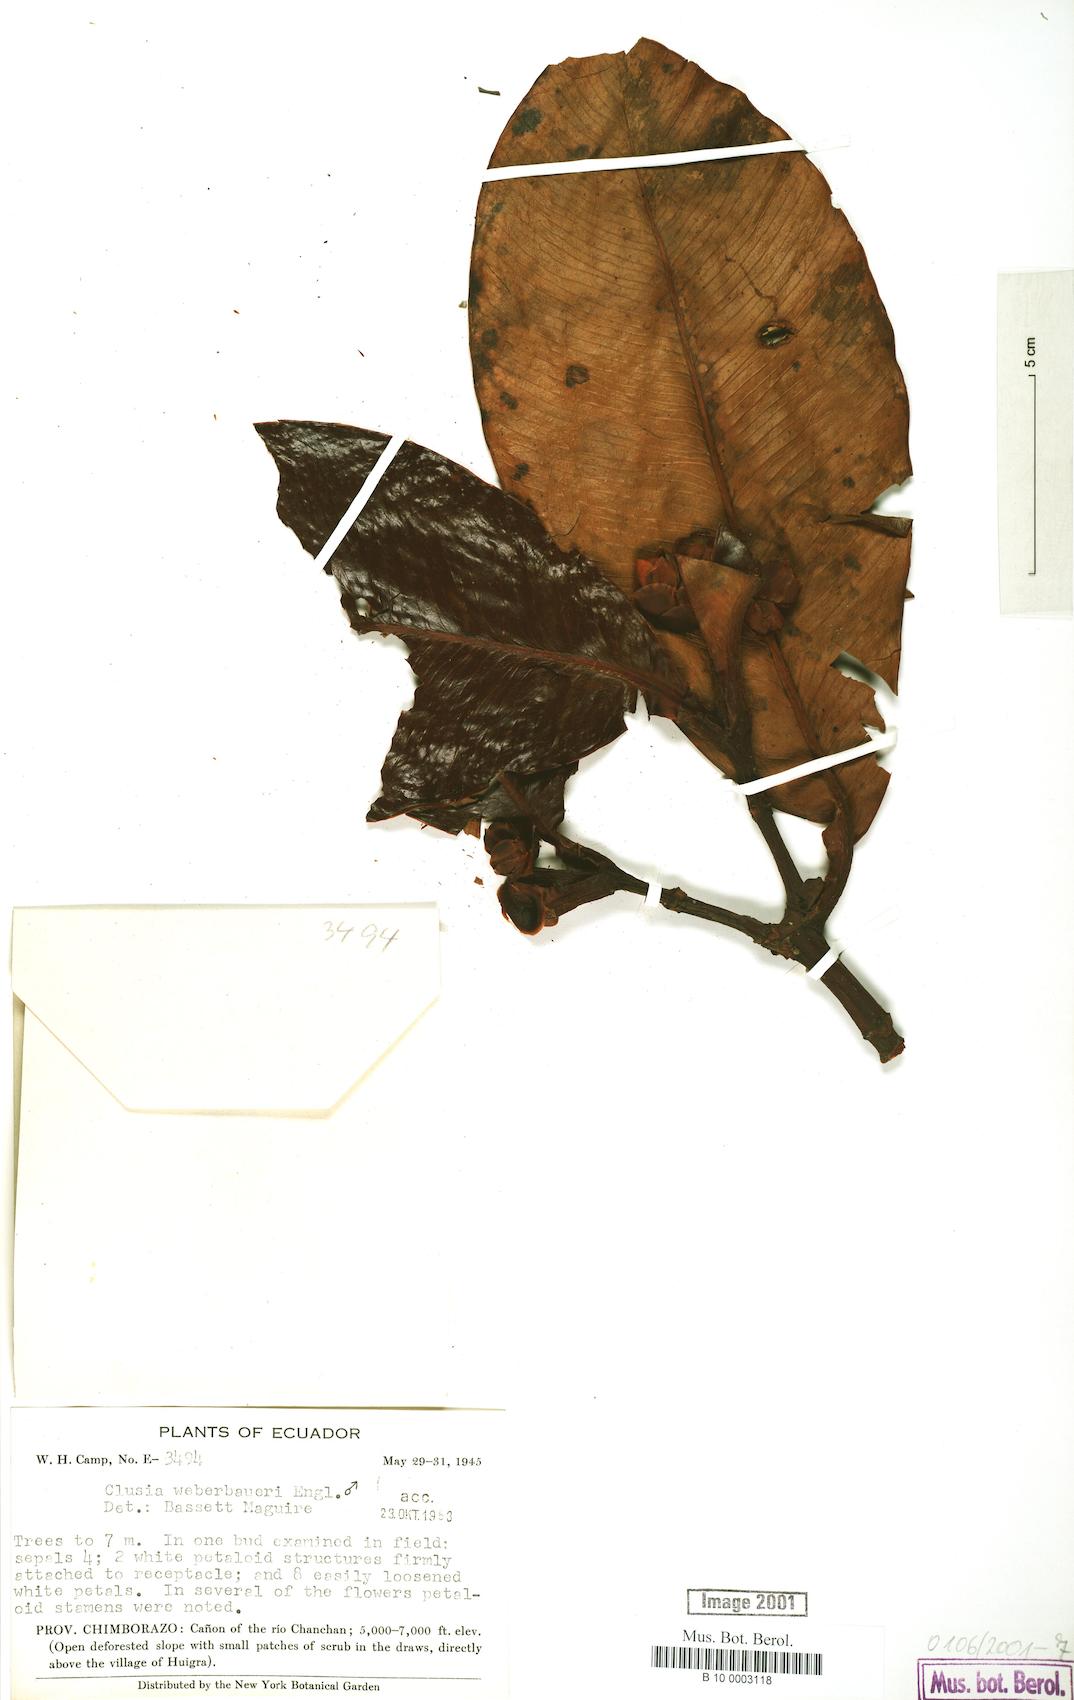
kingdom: Plantae
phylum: Tracheophyta
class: Magnoliopsida
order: Malpighiales
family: Clusiaceae
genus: Clusia
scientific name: Clusia weberbaueri
